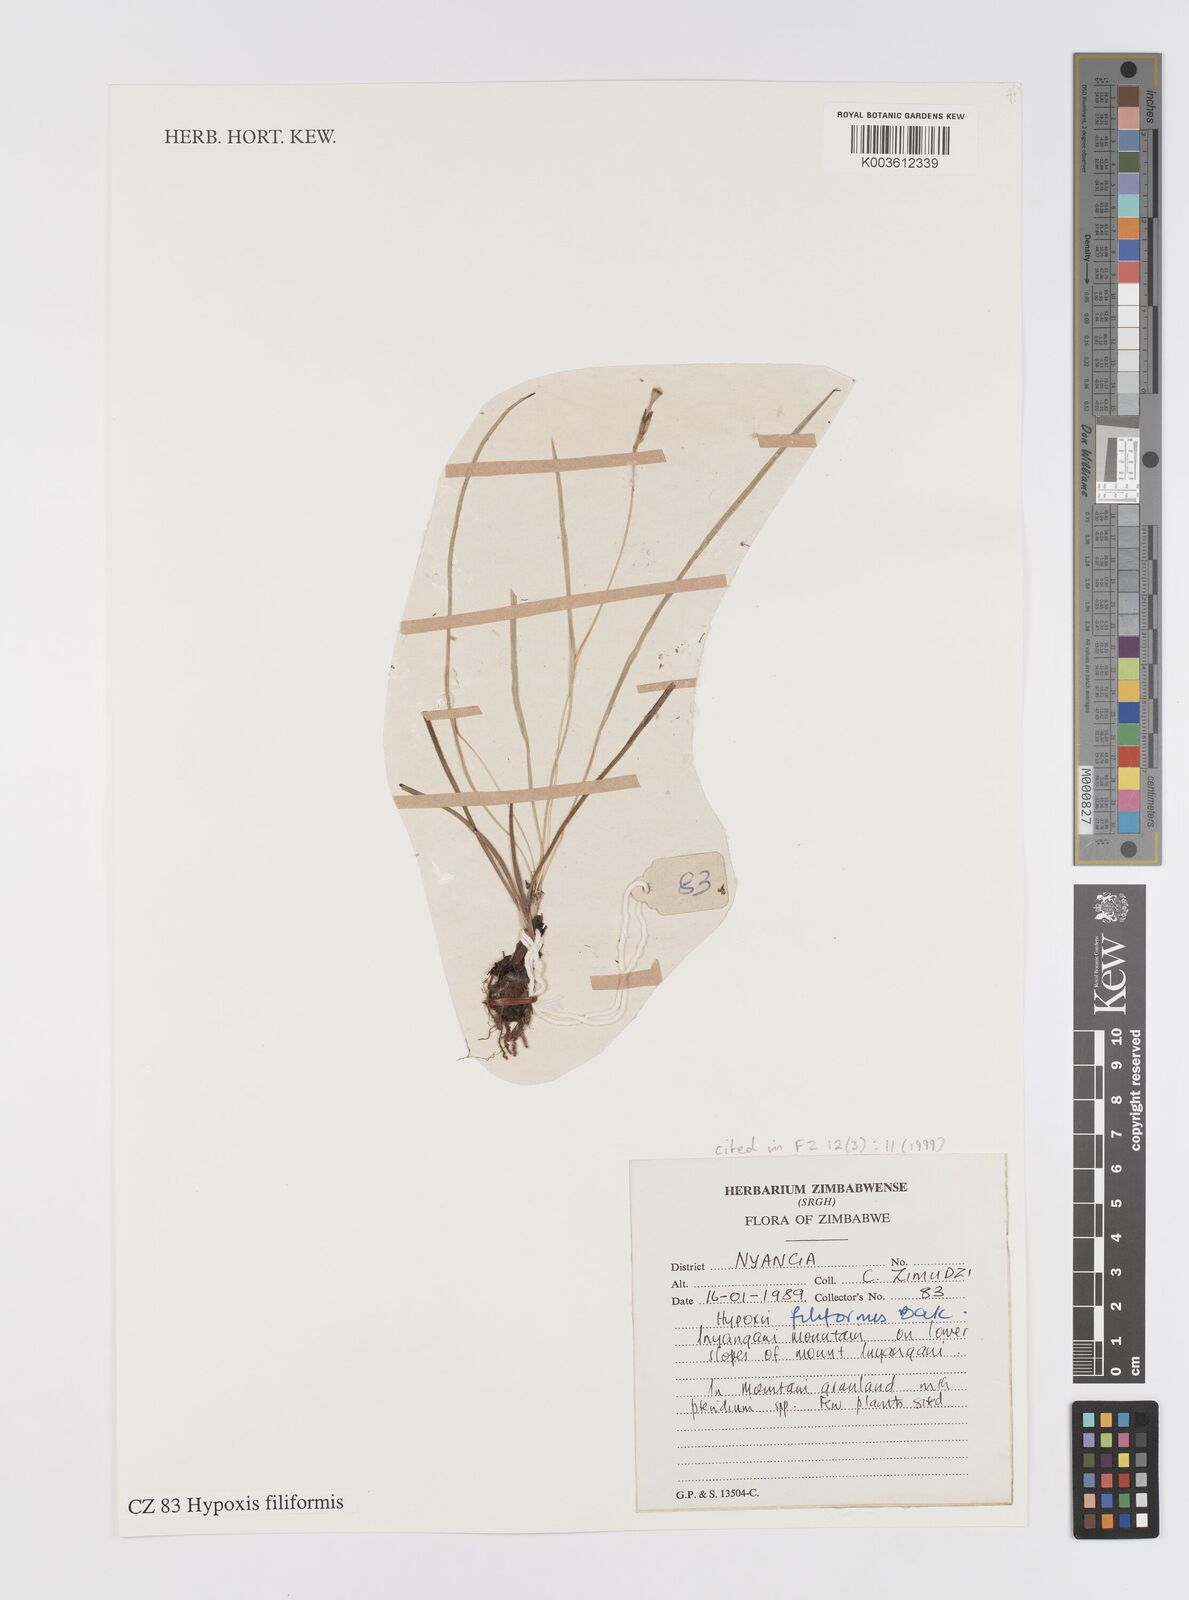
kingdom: Plantae
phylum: Tracheophyta
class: Liliopsida
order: Asparagales
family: Hypoxidaceae
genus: Hypoxis
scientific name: Hypoxis filiformis
